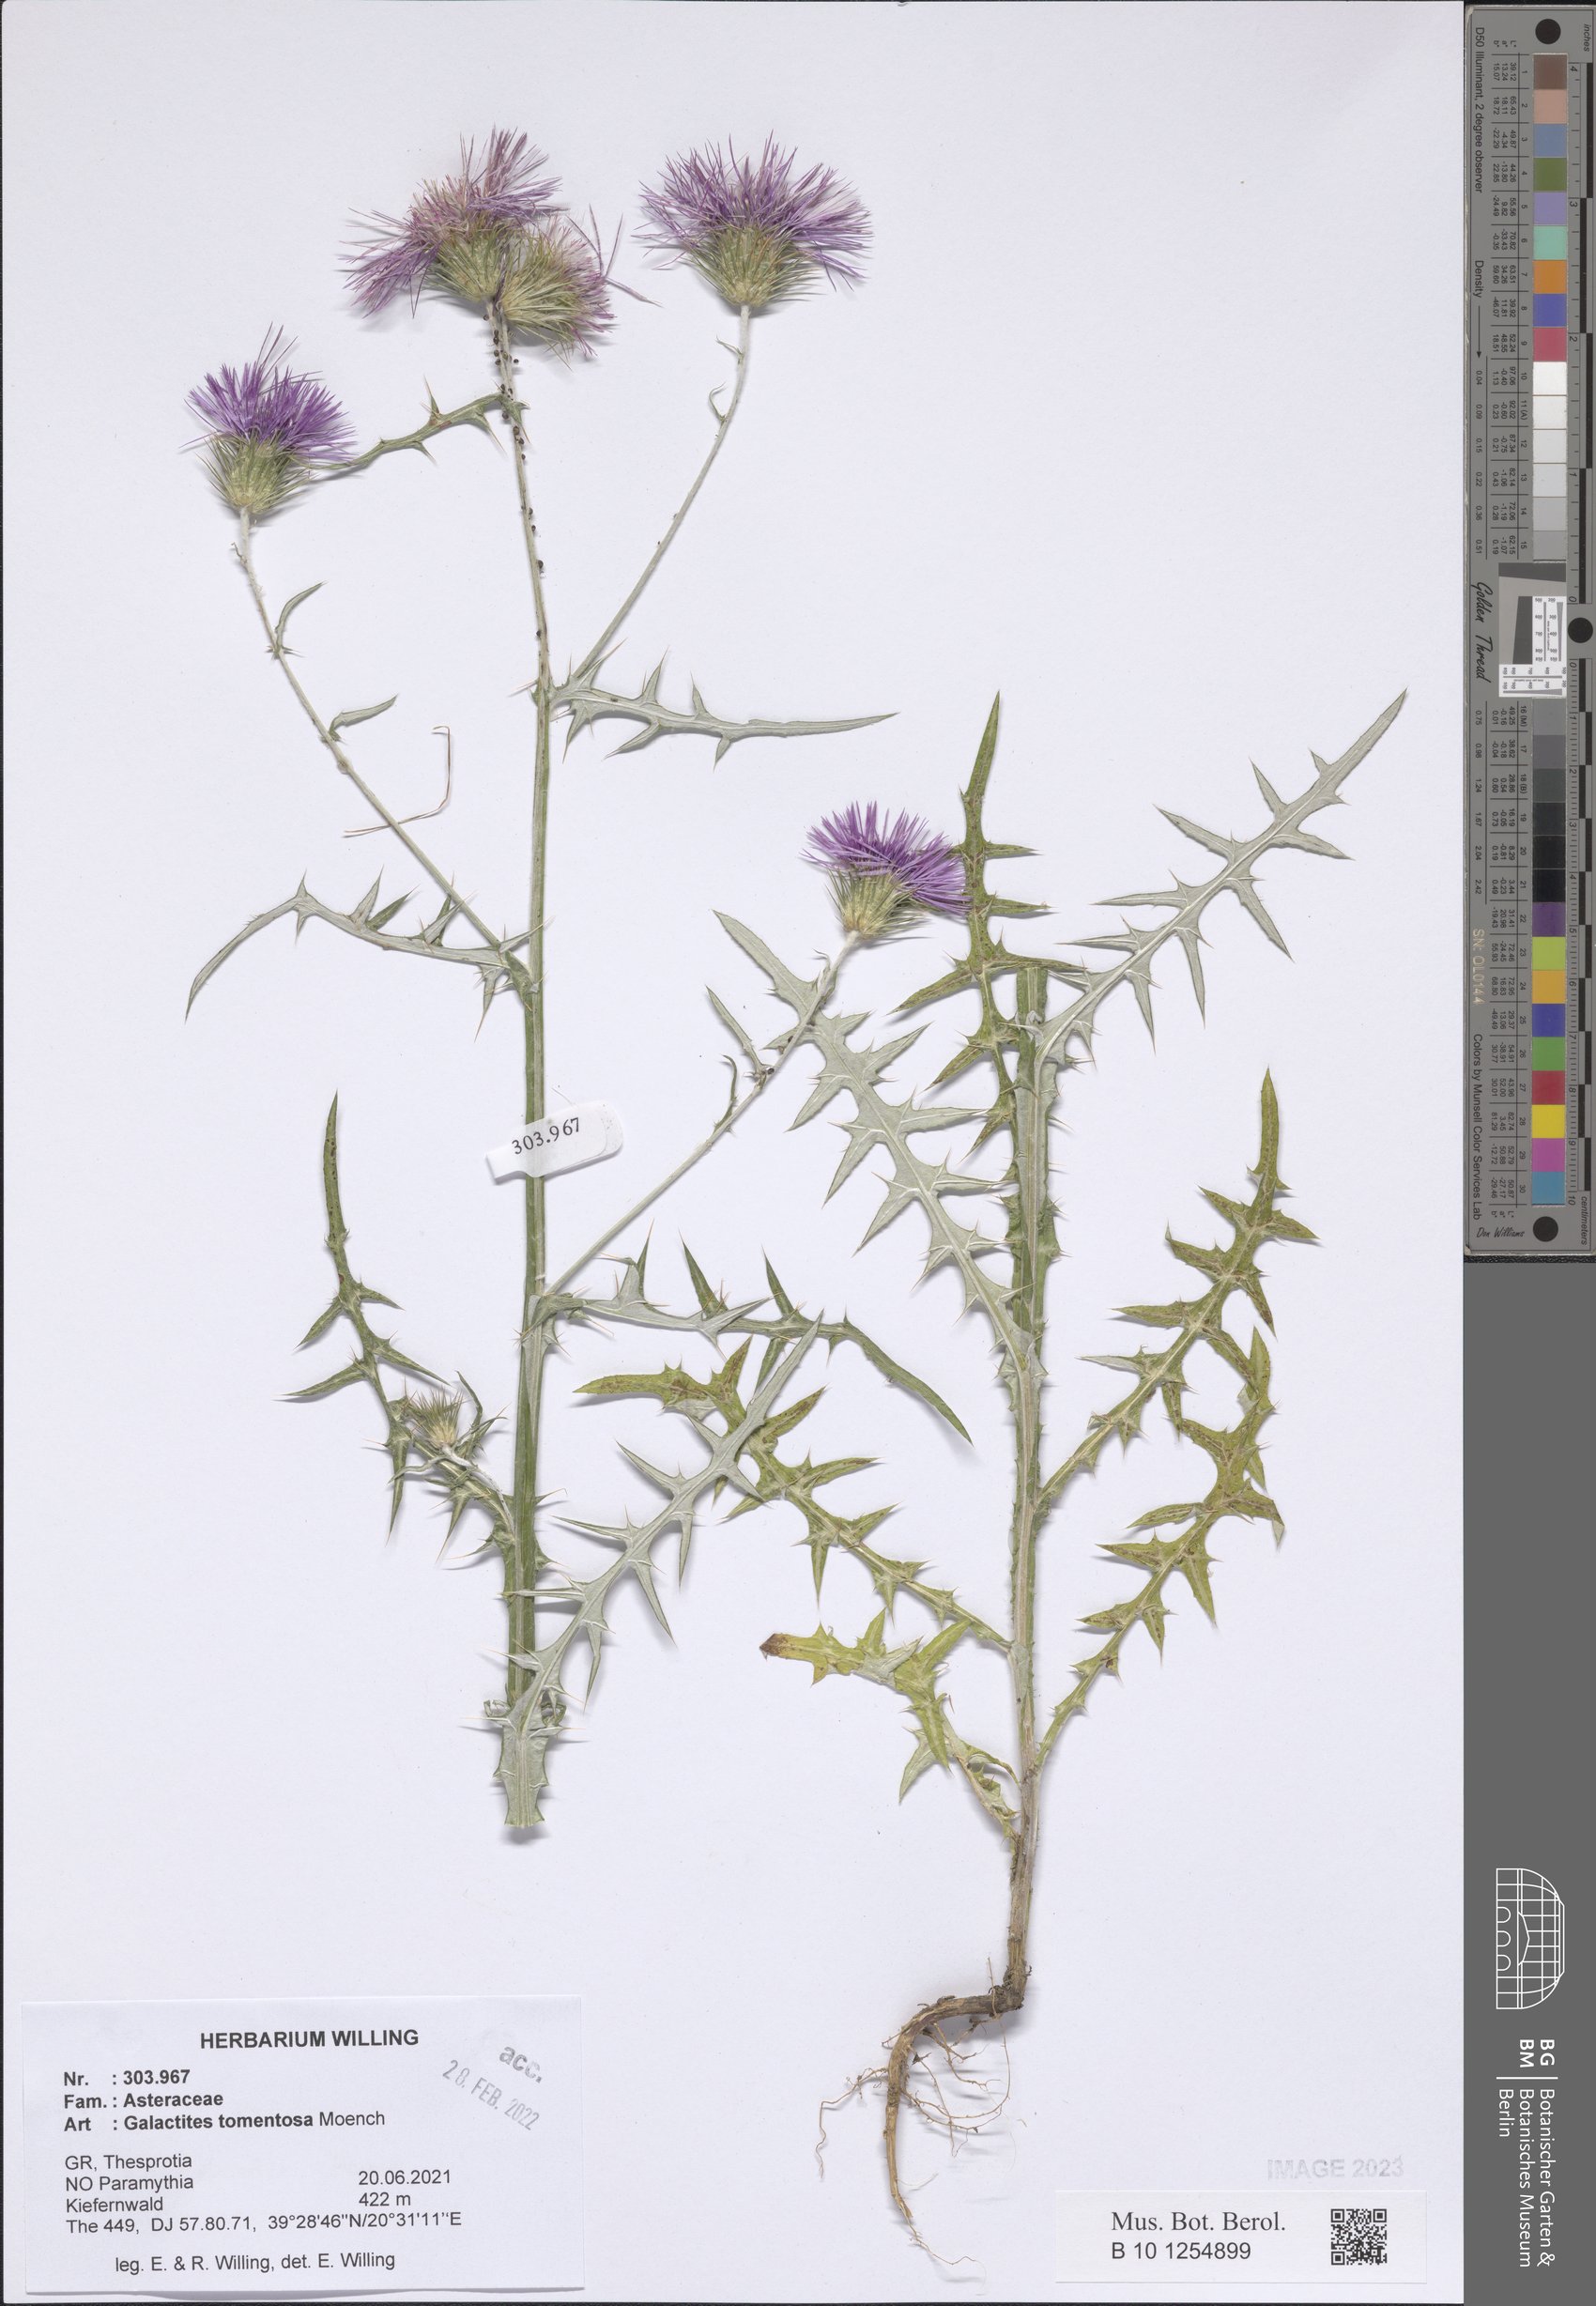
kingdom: Plantae
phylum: Tracheophyta
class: Magnoliopsida
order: Asterales
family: Asteraceae
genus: Galactites
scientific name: Galactites tomentosa
